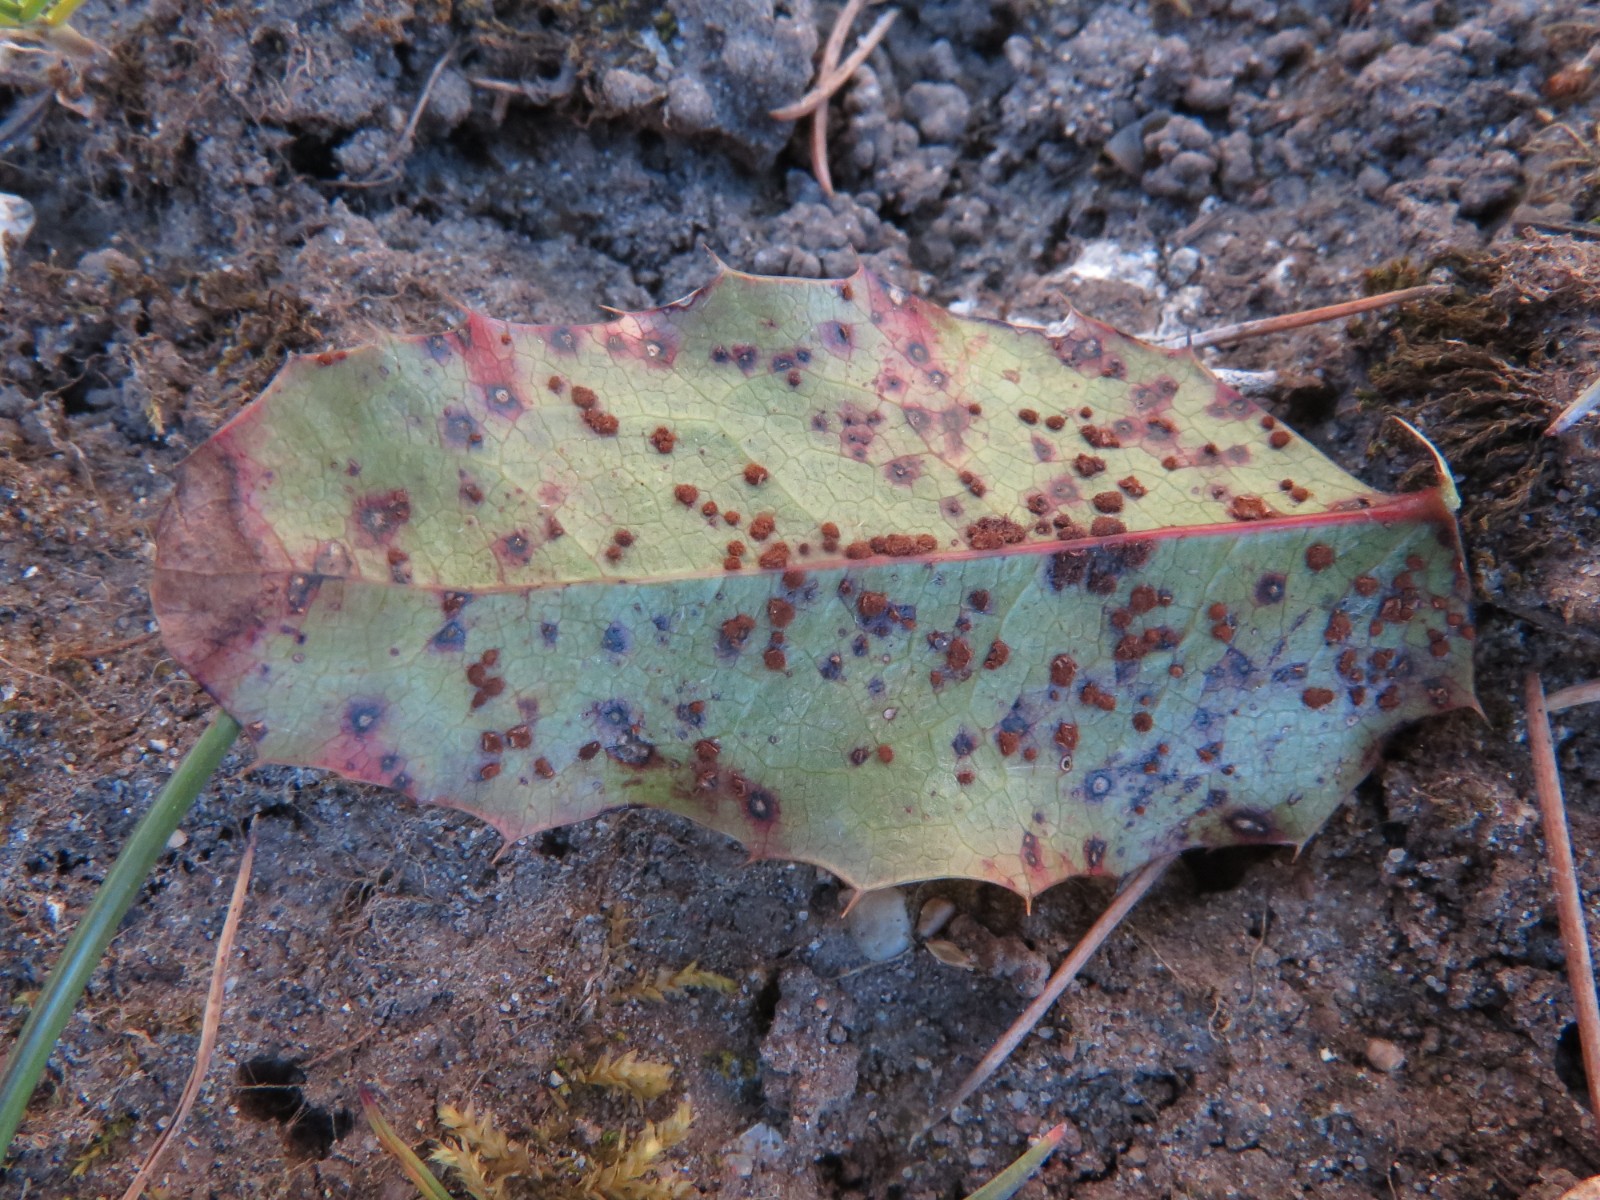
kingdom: Fungi
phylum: Basidiomycota
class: Pucciniomycetes
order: Pucciniales
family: Pucciniaceae
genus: Cumminsiella
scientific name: Cumminsiella mirabilissima
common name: mahonierust
